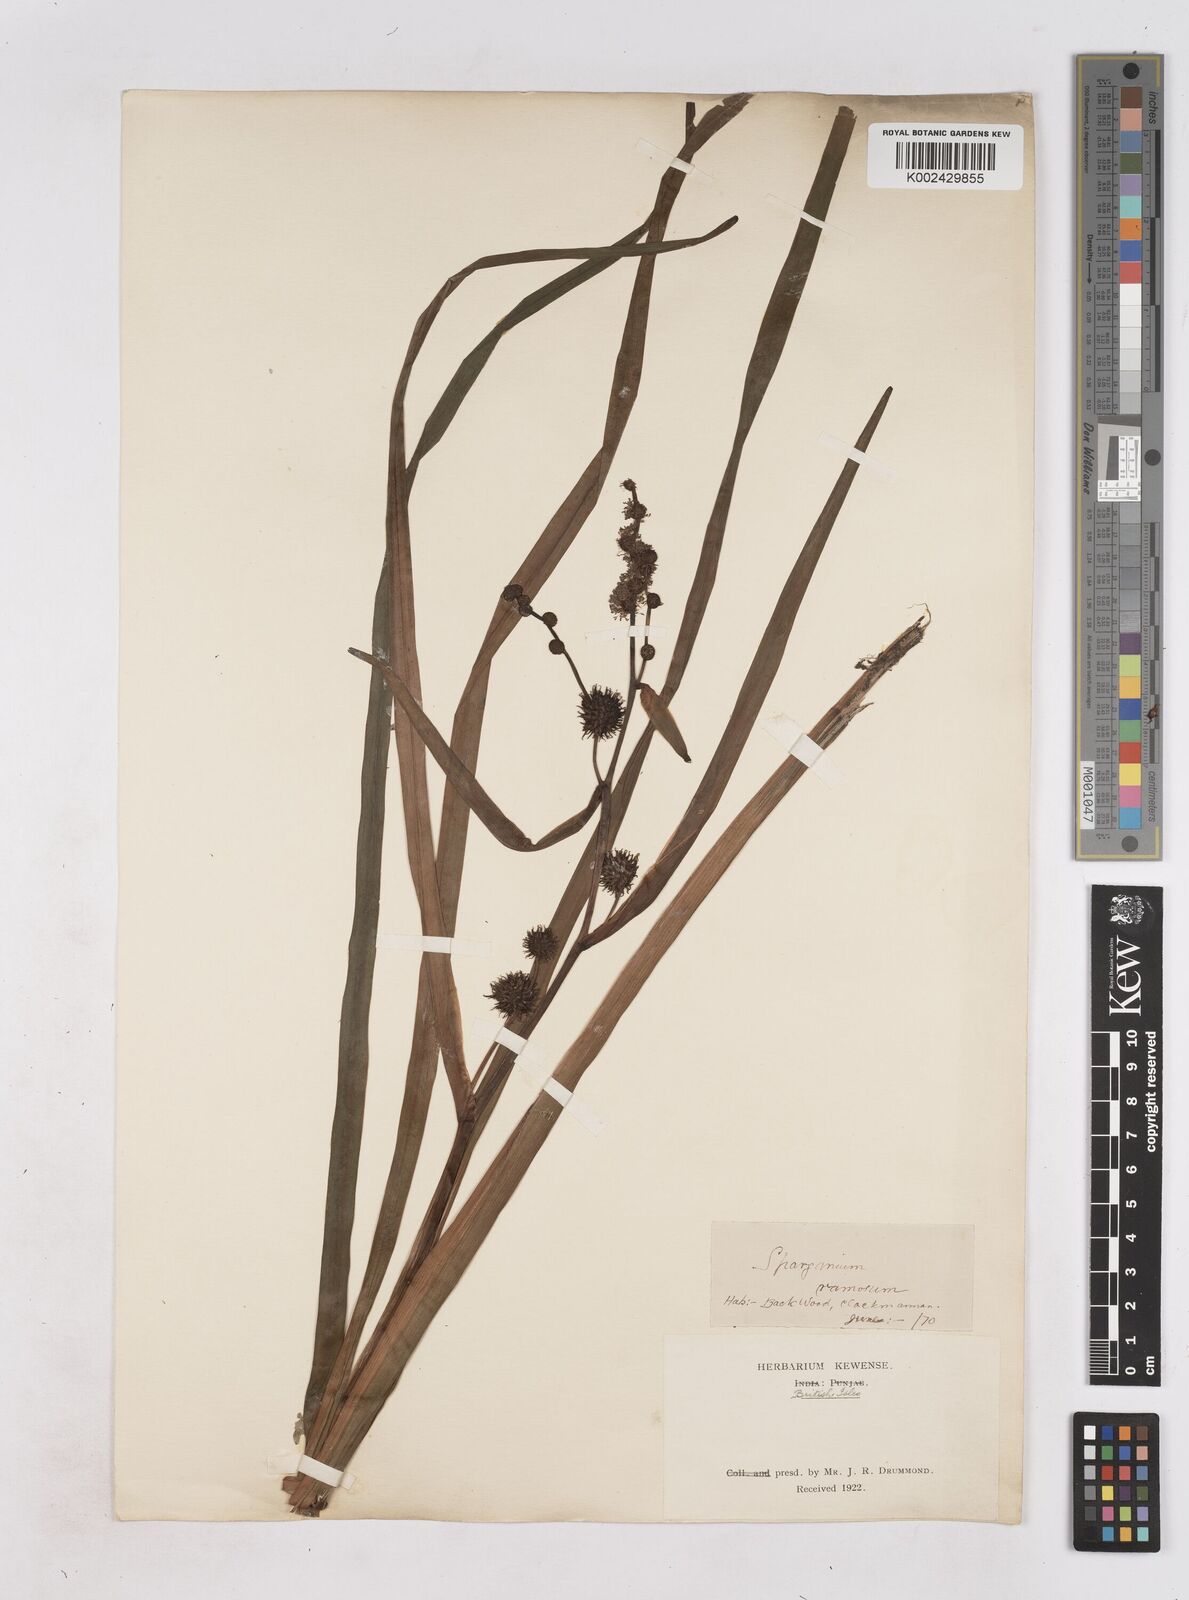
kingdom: Plantae
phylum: Tracheophyta
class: Liliopsida
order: Poales
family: Typhaceae
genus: Sparganium
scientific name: Sparganium erectum
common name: Branched bur-reed
